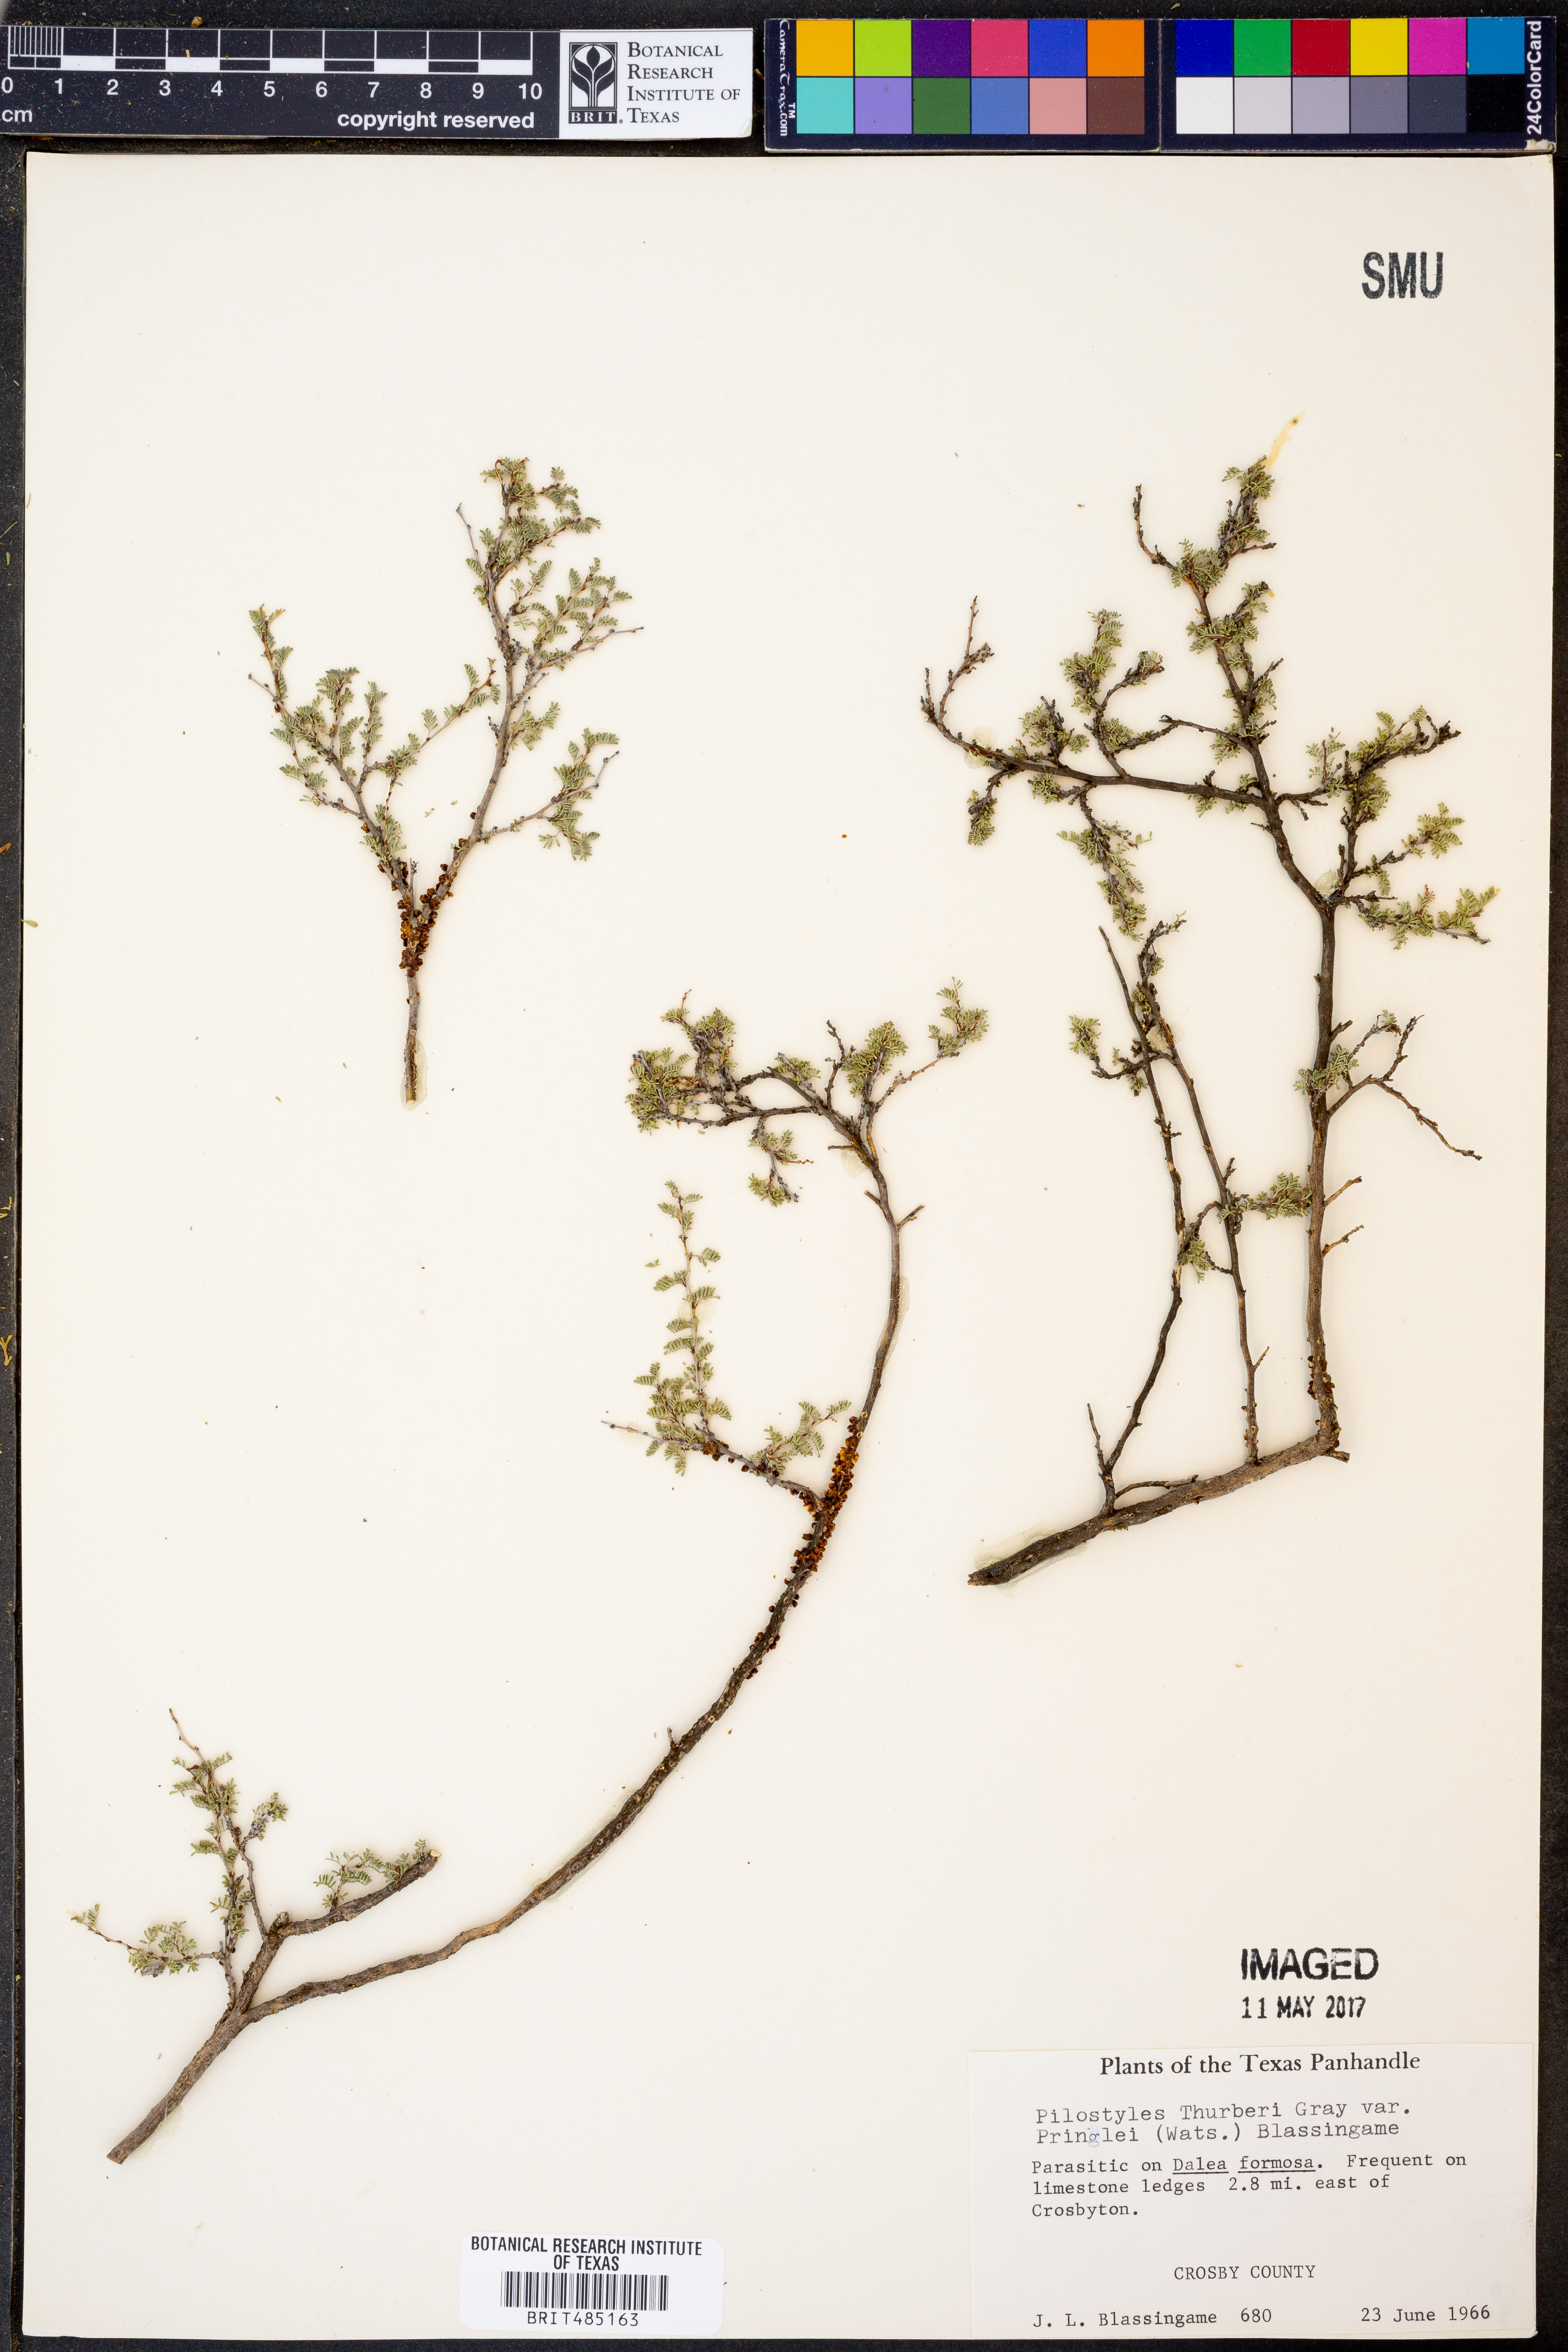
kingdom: Plantae
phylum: Tracheophyta
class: Magnoliopsida
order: Cucurbitales
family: Apodanthaceae
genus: Pilostyles
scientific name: Pilostyles thurberi
